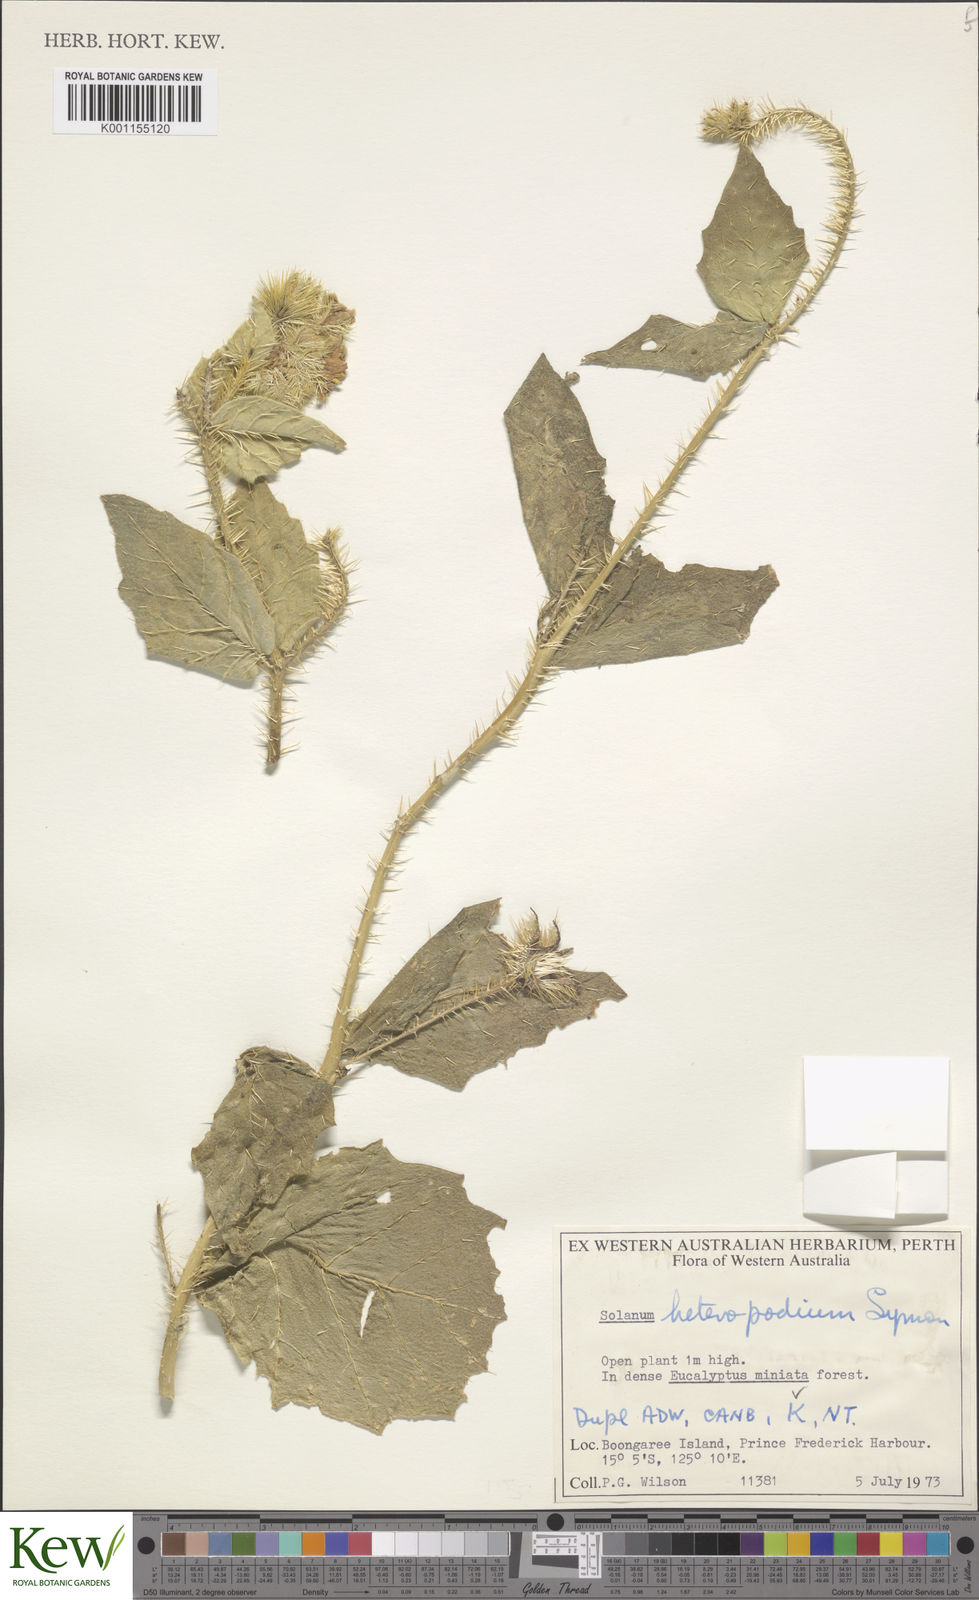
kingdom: Plantae
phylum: Tracheophyta
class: Magnoliopsida
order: Solanales
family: Solanaceae
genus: Solanum
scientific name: Solanum heteropodium
